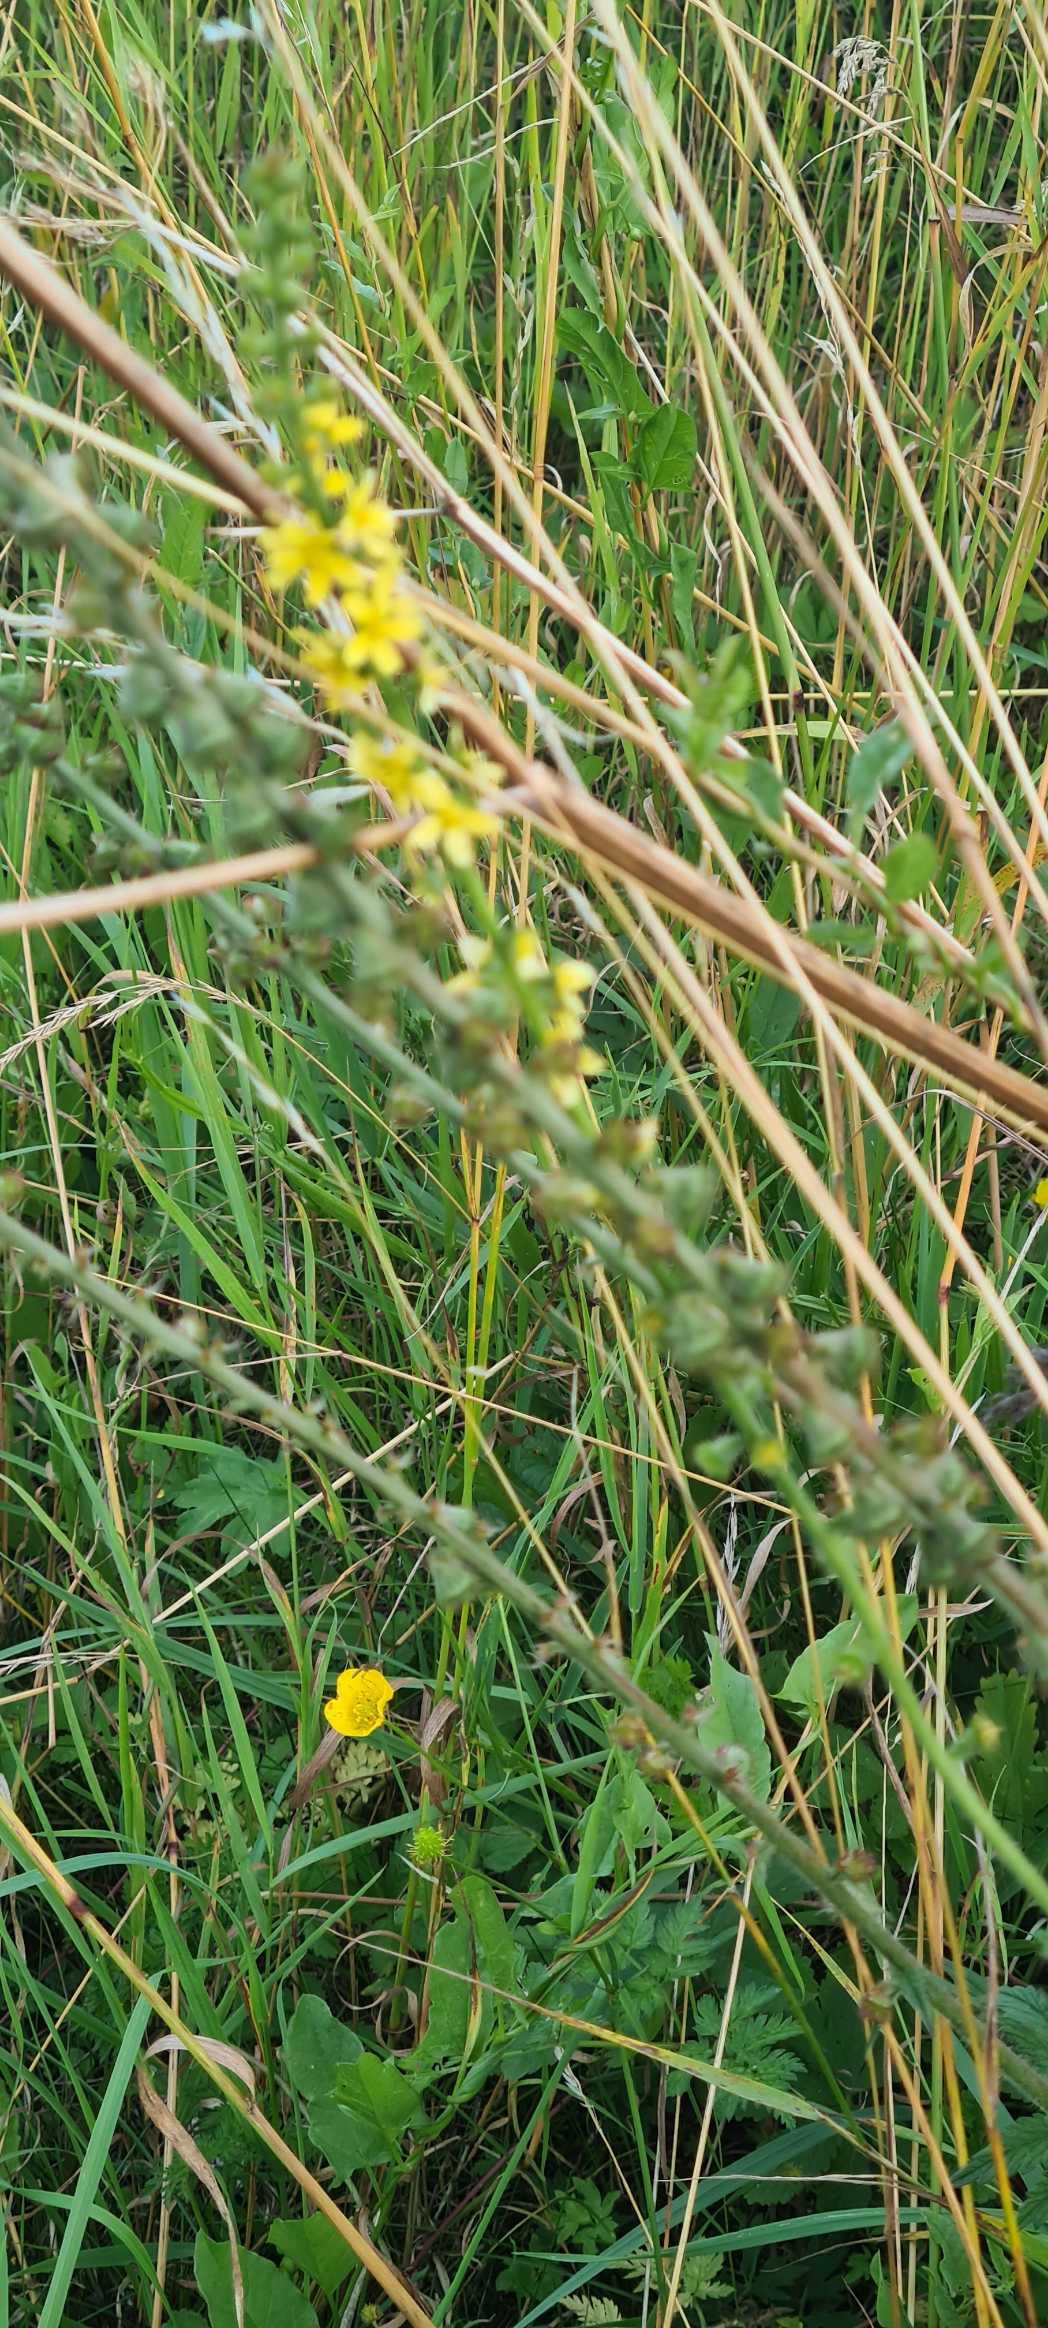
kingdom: Plantae
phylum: Tracheophyta
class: Magnoliopsida
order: Rosales
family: Rosaceae
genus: Agrimonia
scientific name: Agrimonia eupatoria
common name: Almindelig agermåne
